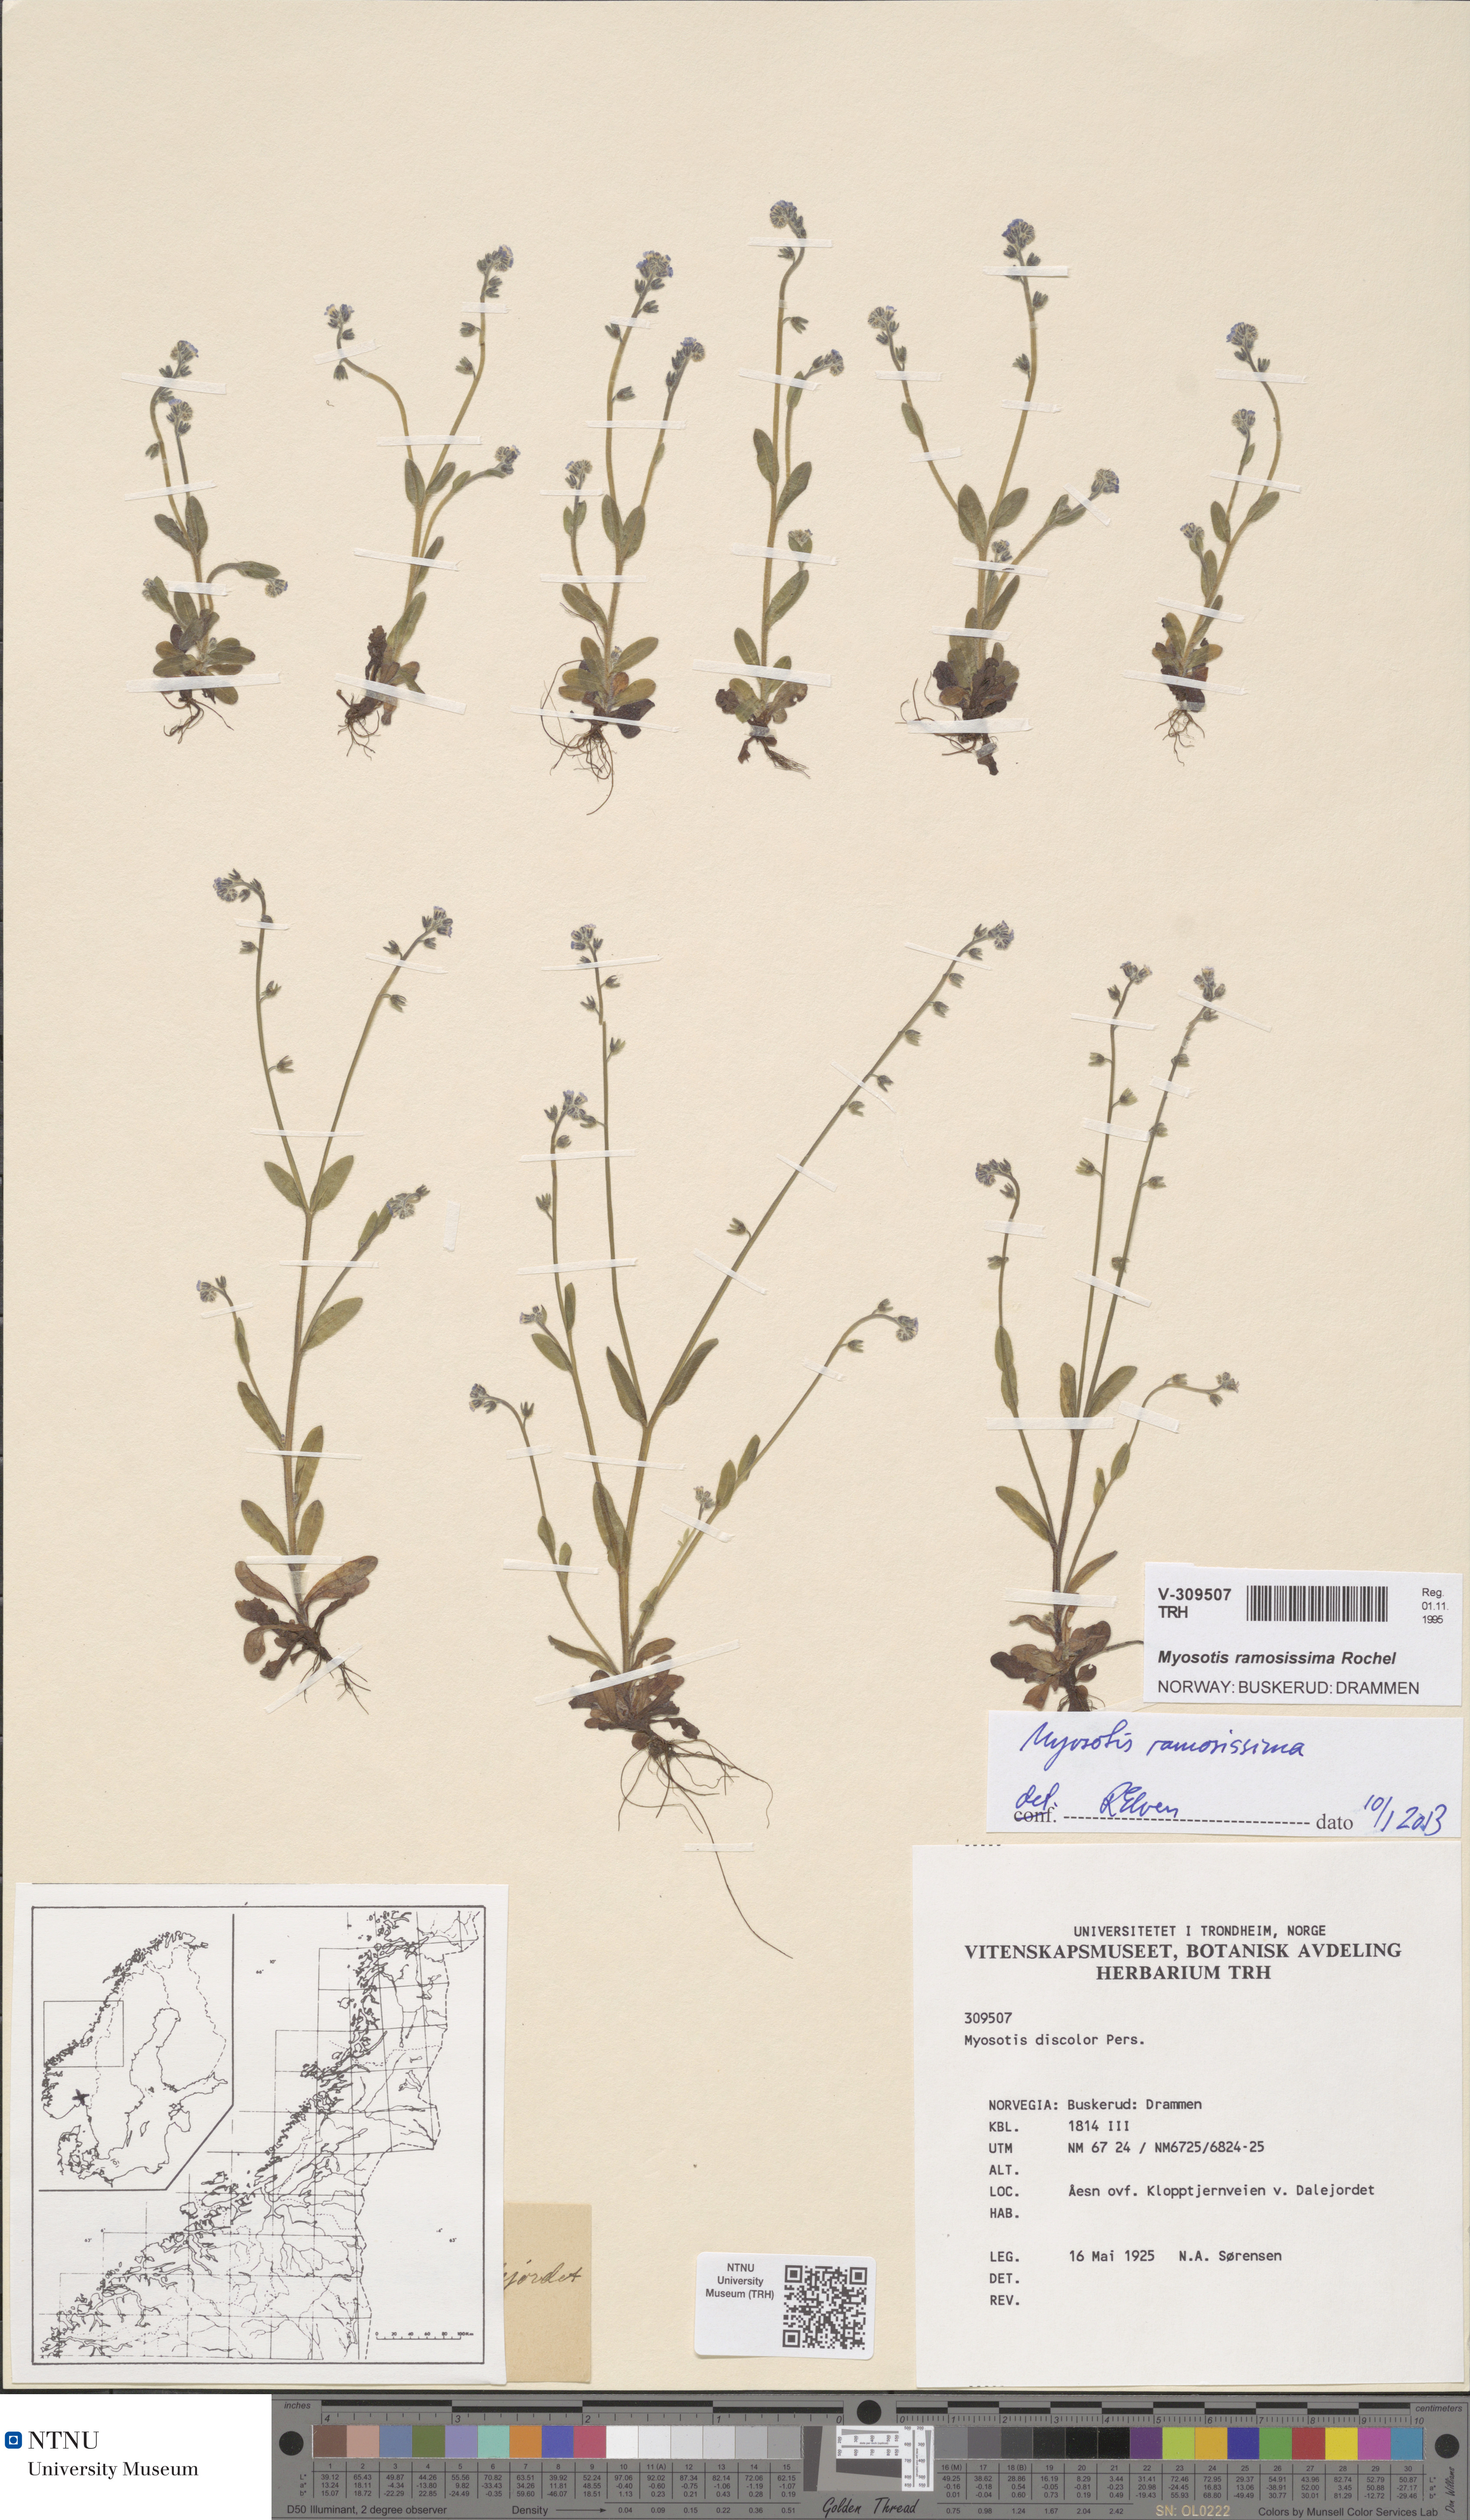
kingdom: Plantae
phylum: Tracheophyta
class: Magnoliopsida
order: Boraginales
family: Boraginaceae
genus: Myosotis
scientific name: Myosotis ramosissima
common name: Early forget-me-not
